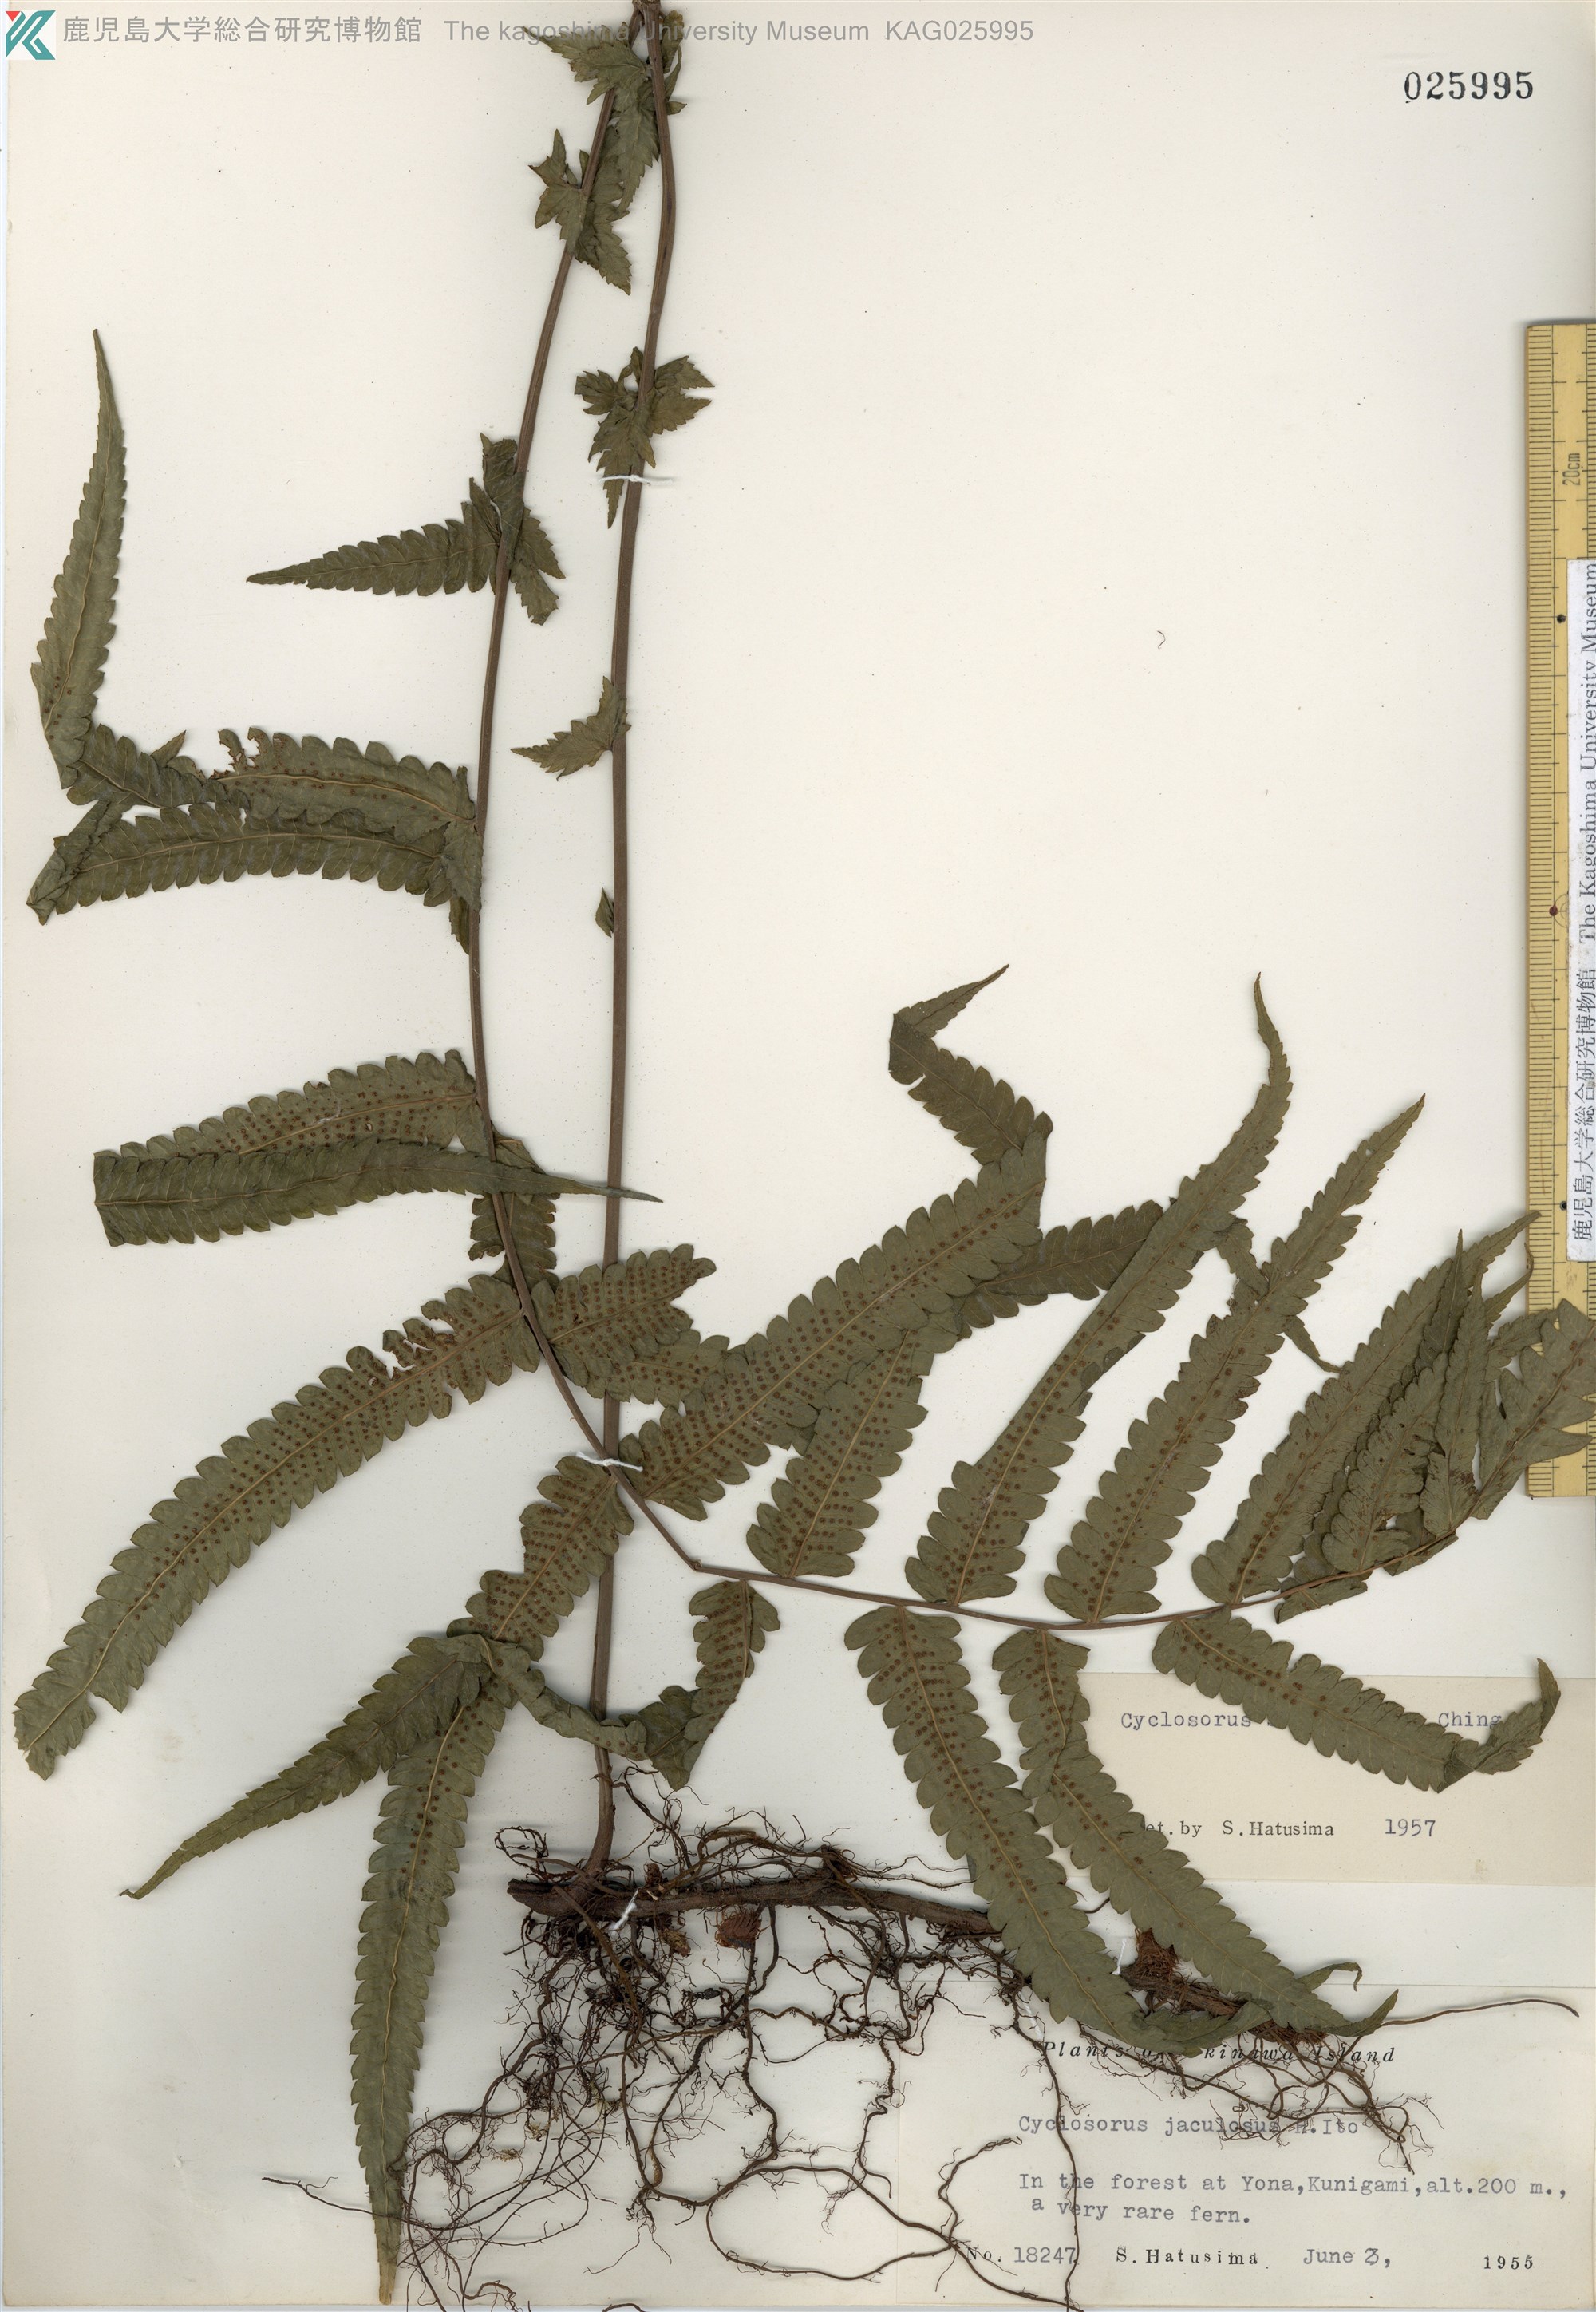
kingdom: Plantae
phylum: Tracheophyta
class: Polypodiopsida
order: Polypodiales
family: Thelypteridaceae
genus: Christella
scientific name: Christella jaculosa
